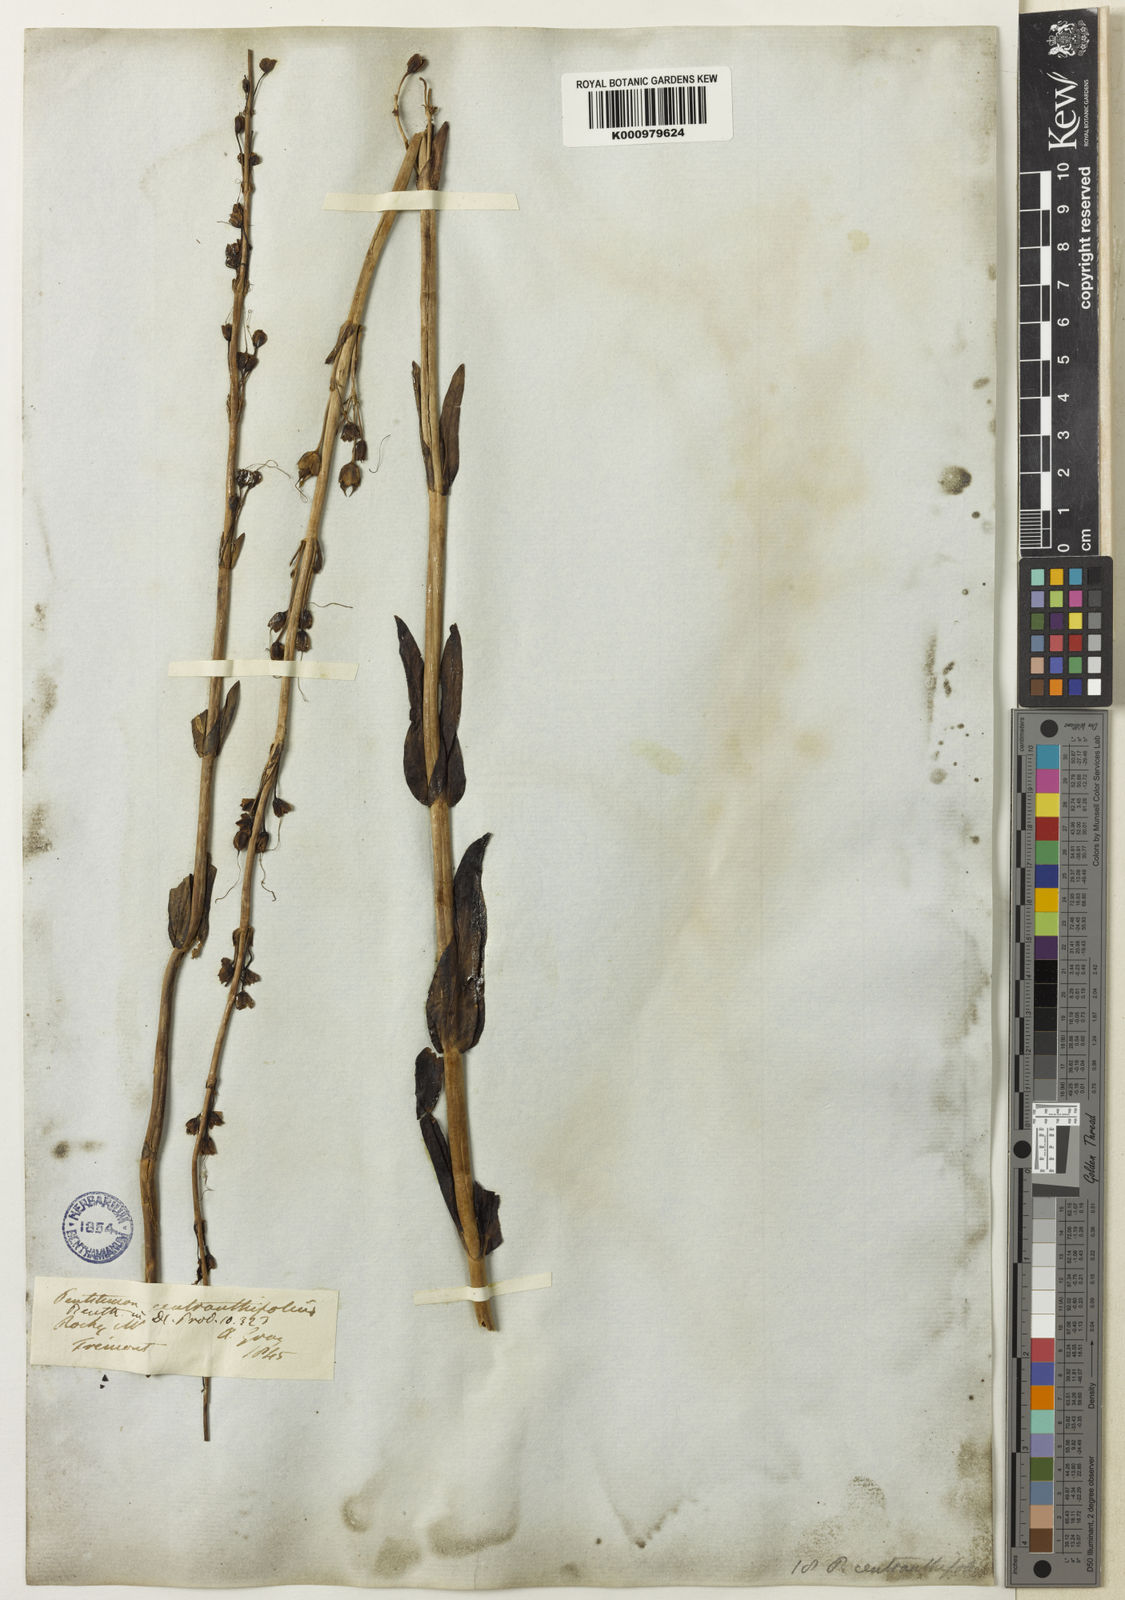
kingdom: Plantae
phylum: Tracheophyta
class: Magnoliopsida
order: Lamiales
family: Plantaginaceae
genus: Penstemon
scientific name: Penstemon centranthifolius
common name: Scarlet bugler
